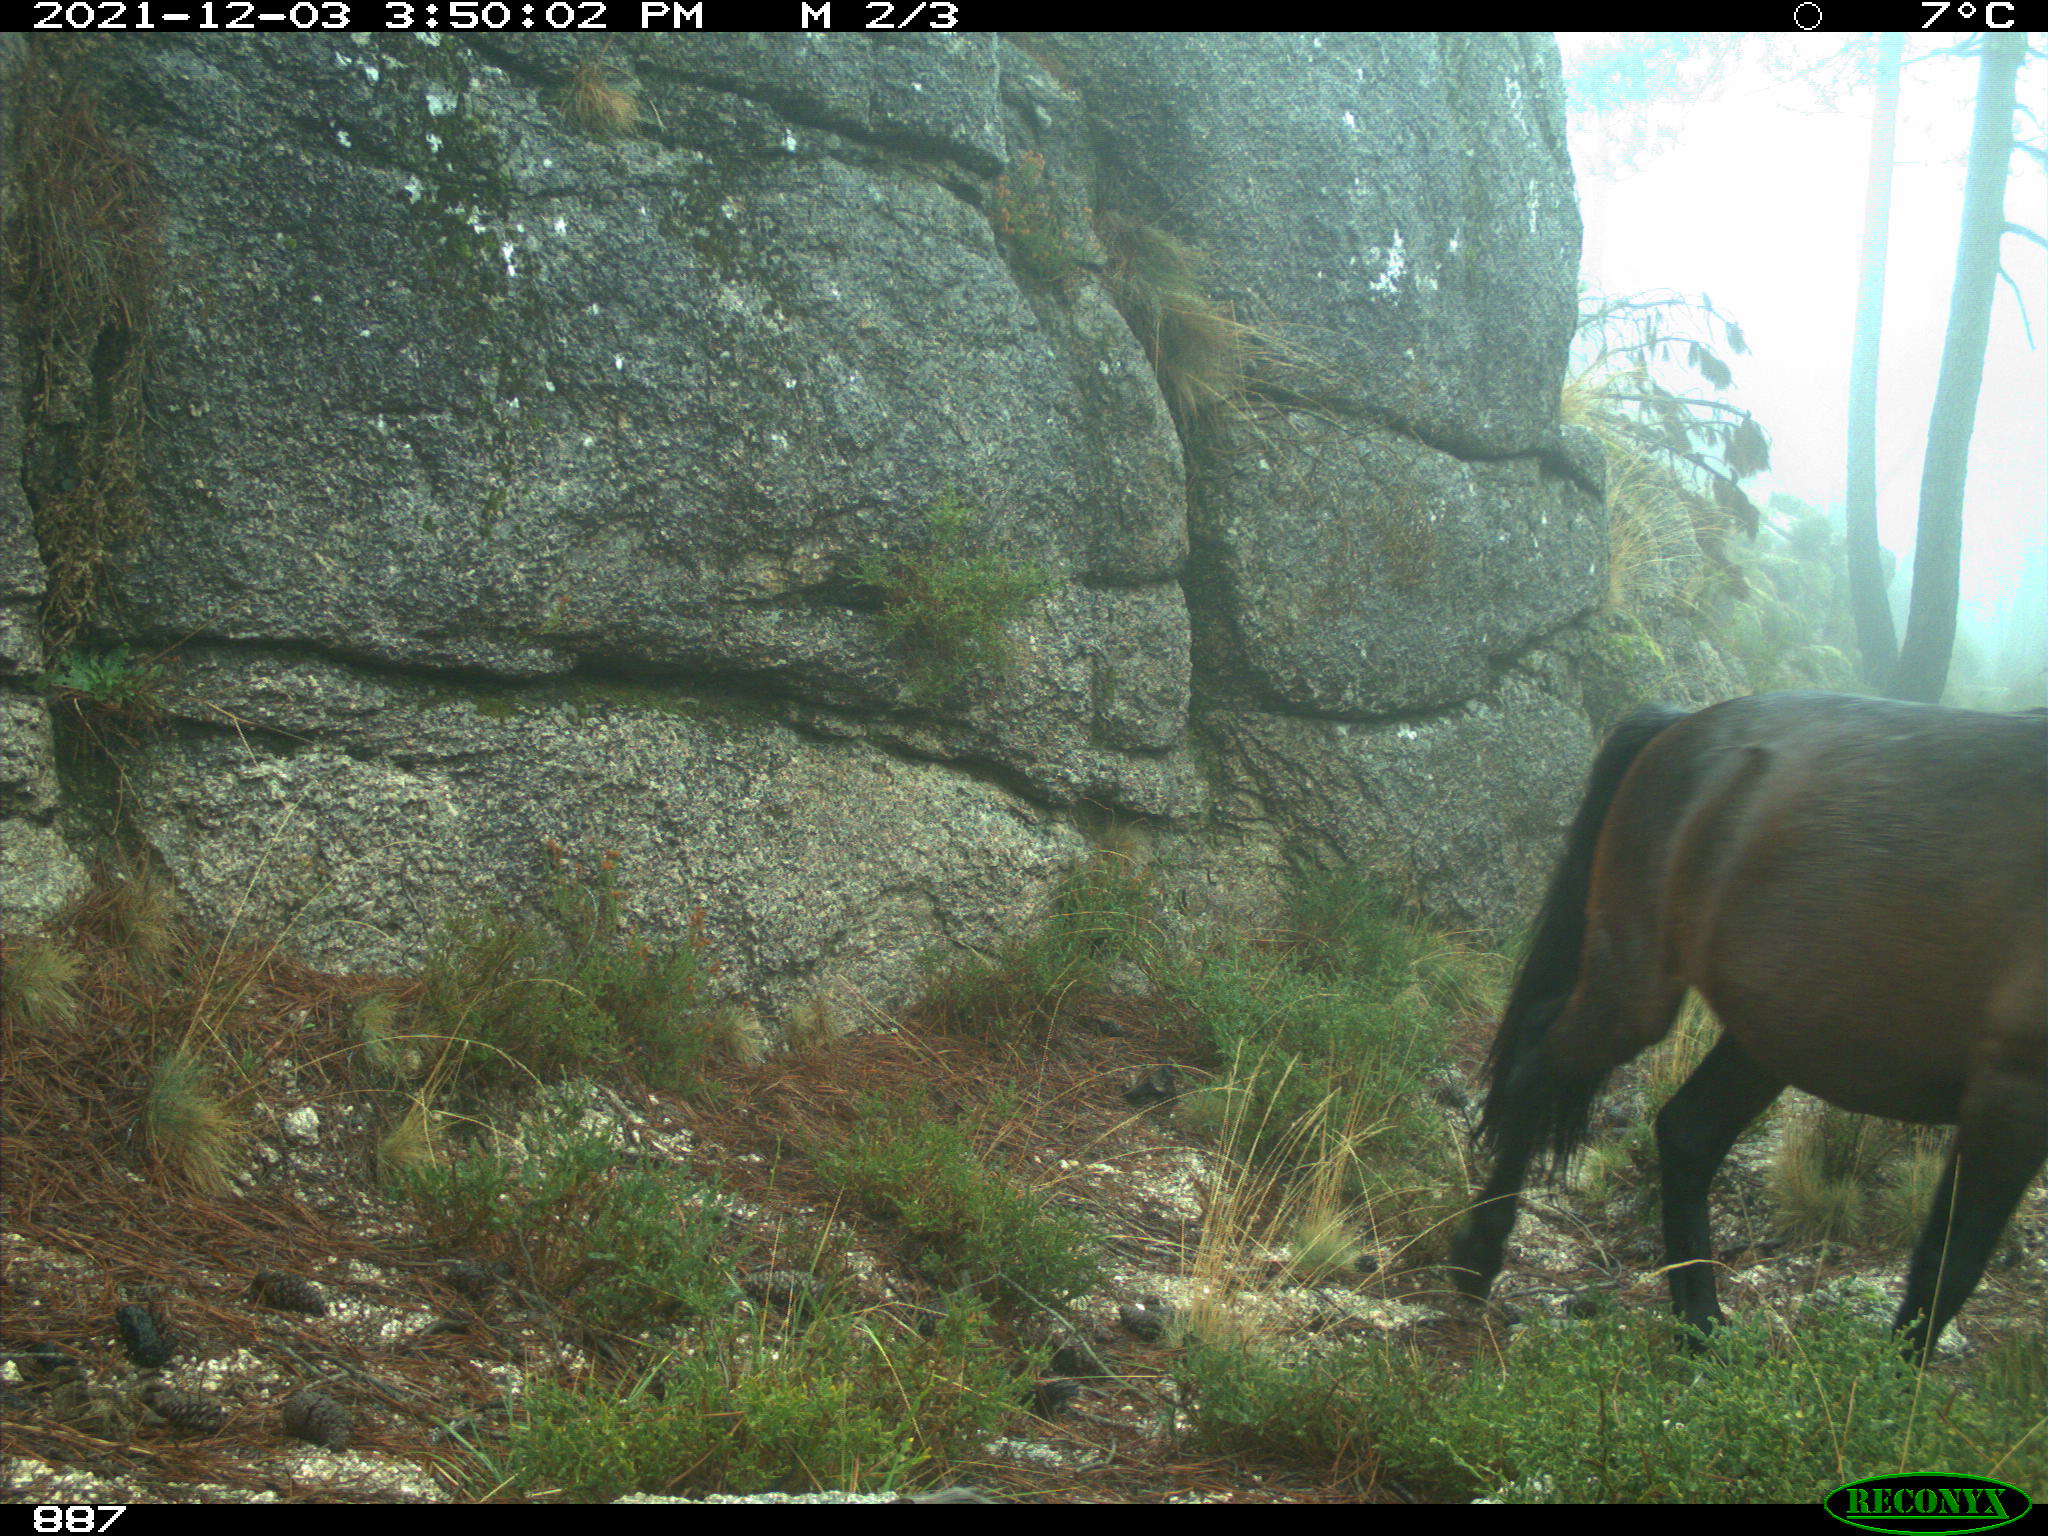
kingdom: Animalia
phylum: Chordata
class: Mammalia
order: Perissodactyla
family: Equidae
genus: Equus
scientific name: Equus caballus
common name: Horse
